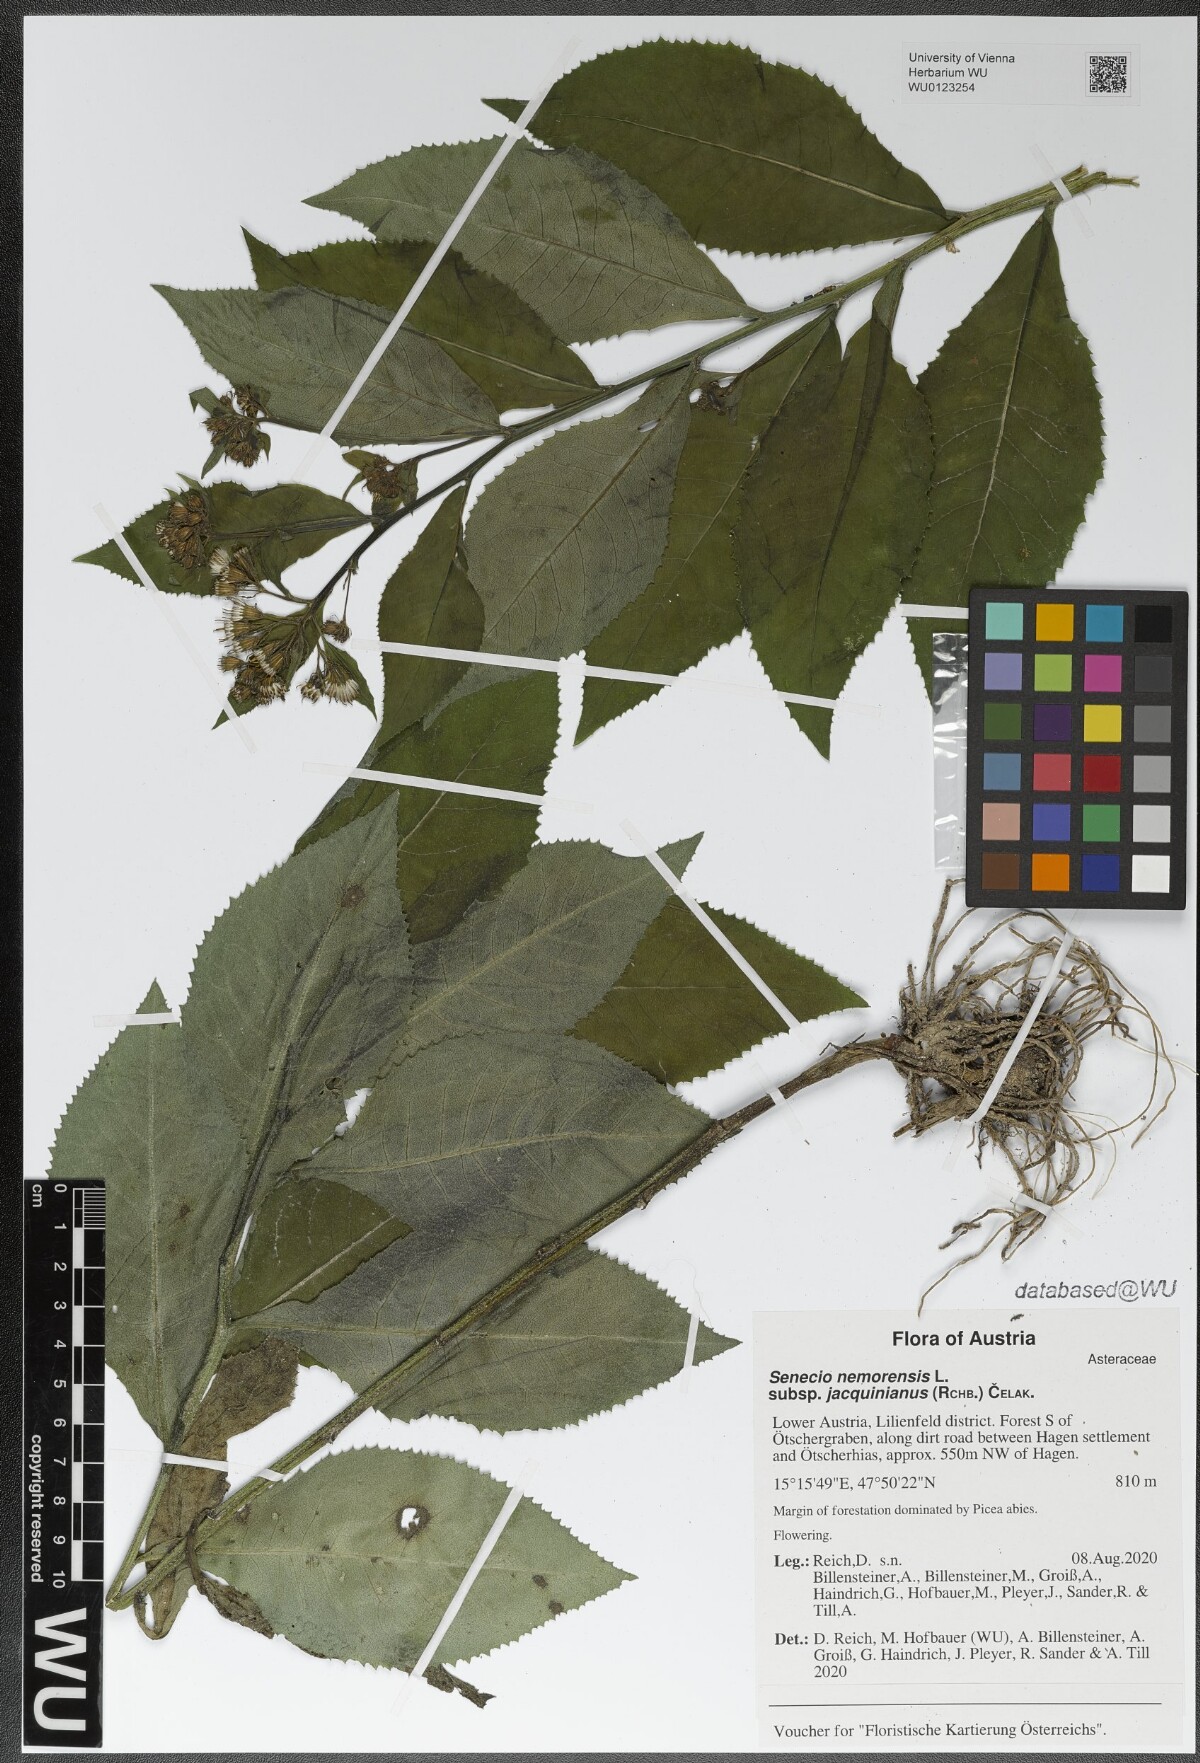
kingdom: Plantae
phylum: Tracheophyta
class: Magnoliopsida
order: Asterales
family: Asteraceae
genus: Senecio
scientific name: Senecio germanicus
